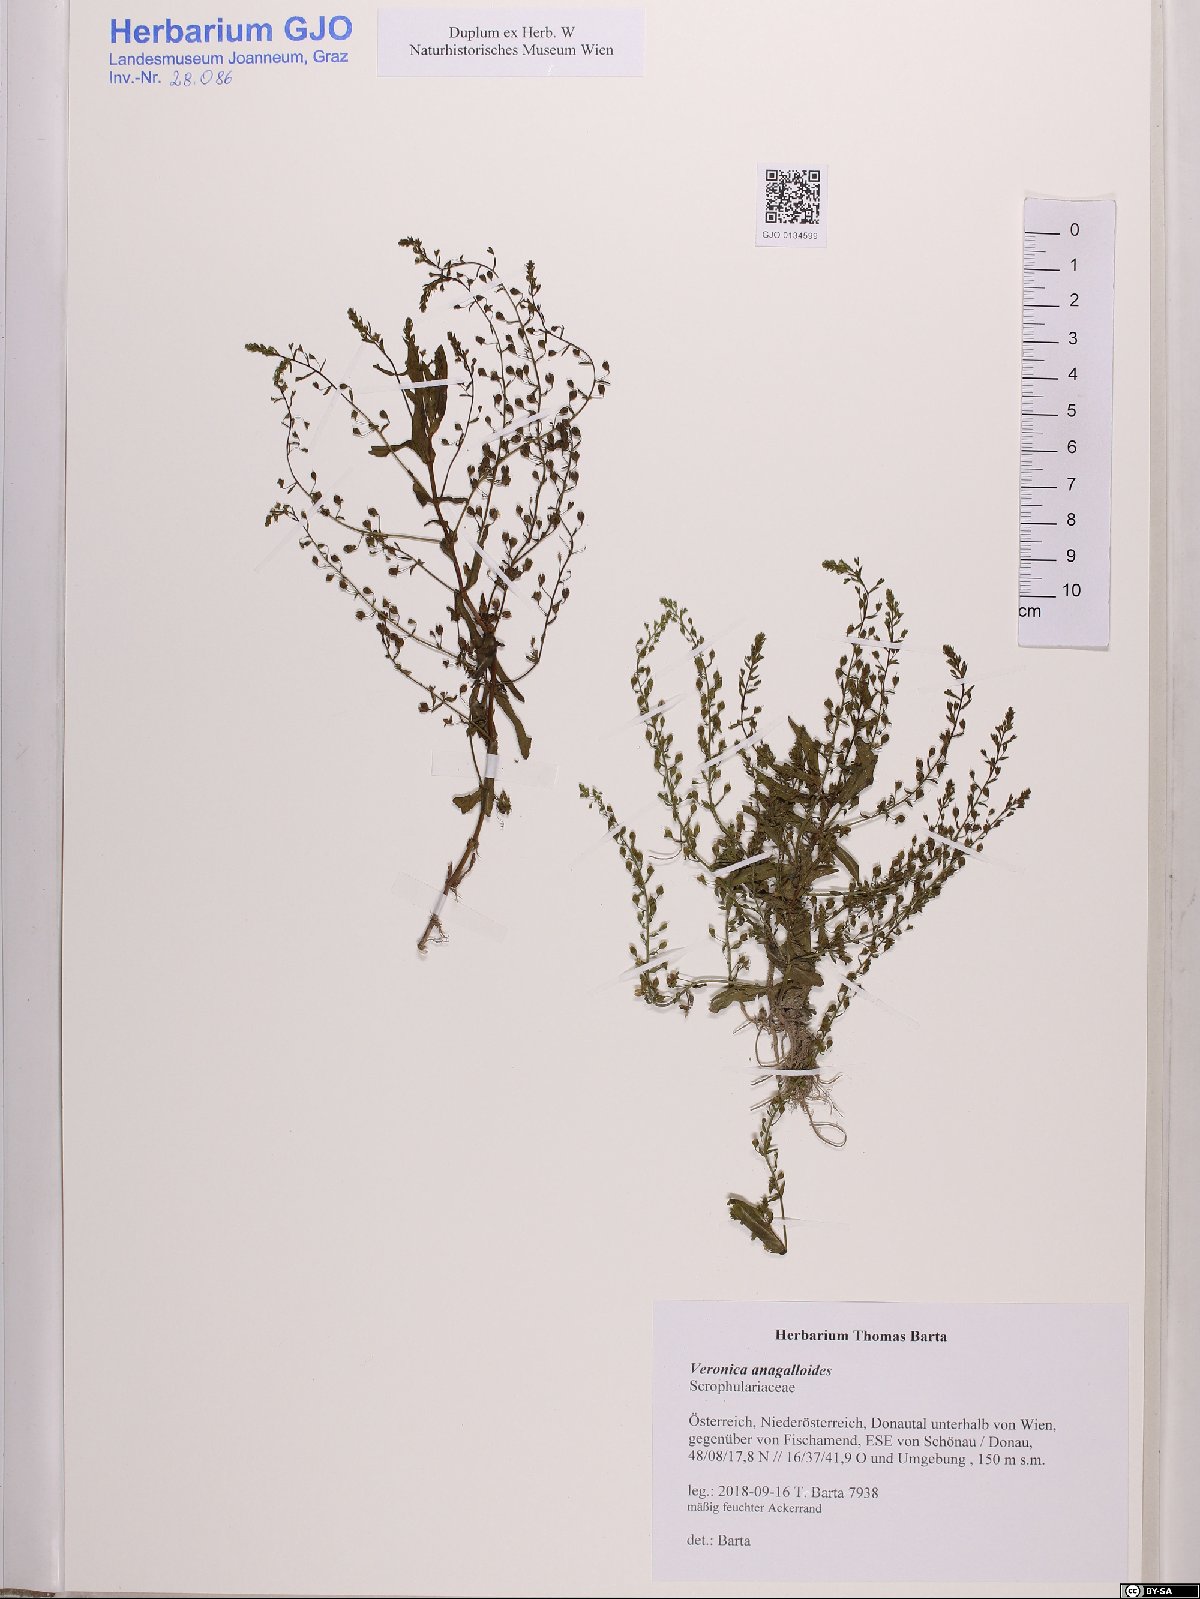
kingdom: Plantae
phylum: Tracheophyta
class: Magnoliopsida
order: Lamiales
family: Plantaginaceae
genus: Veronica
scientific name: Veronica anagalloides
